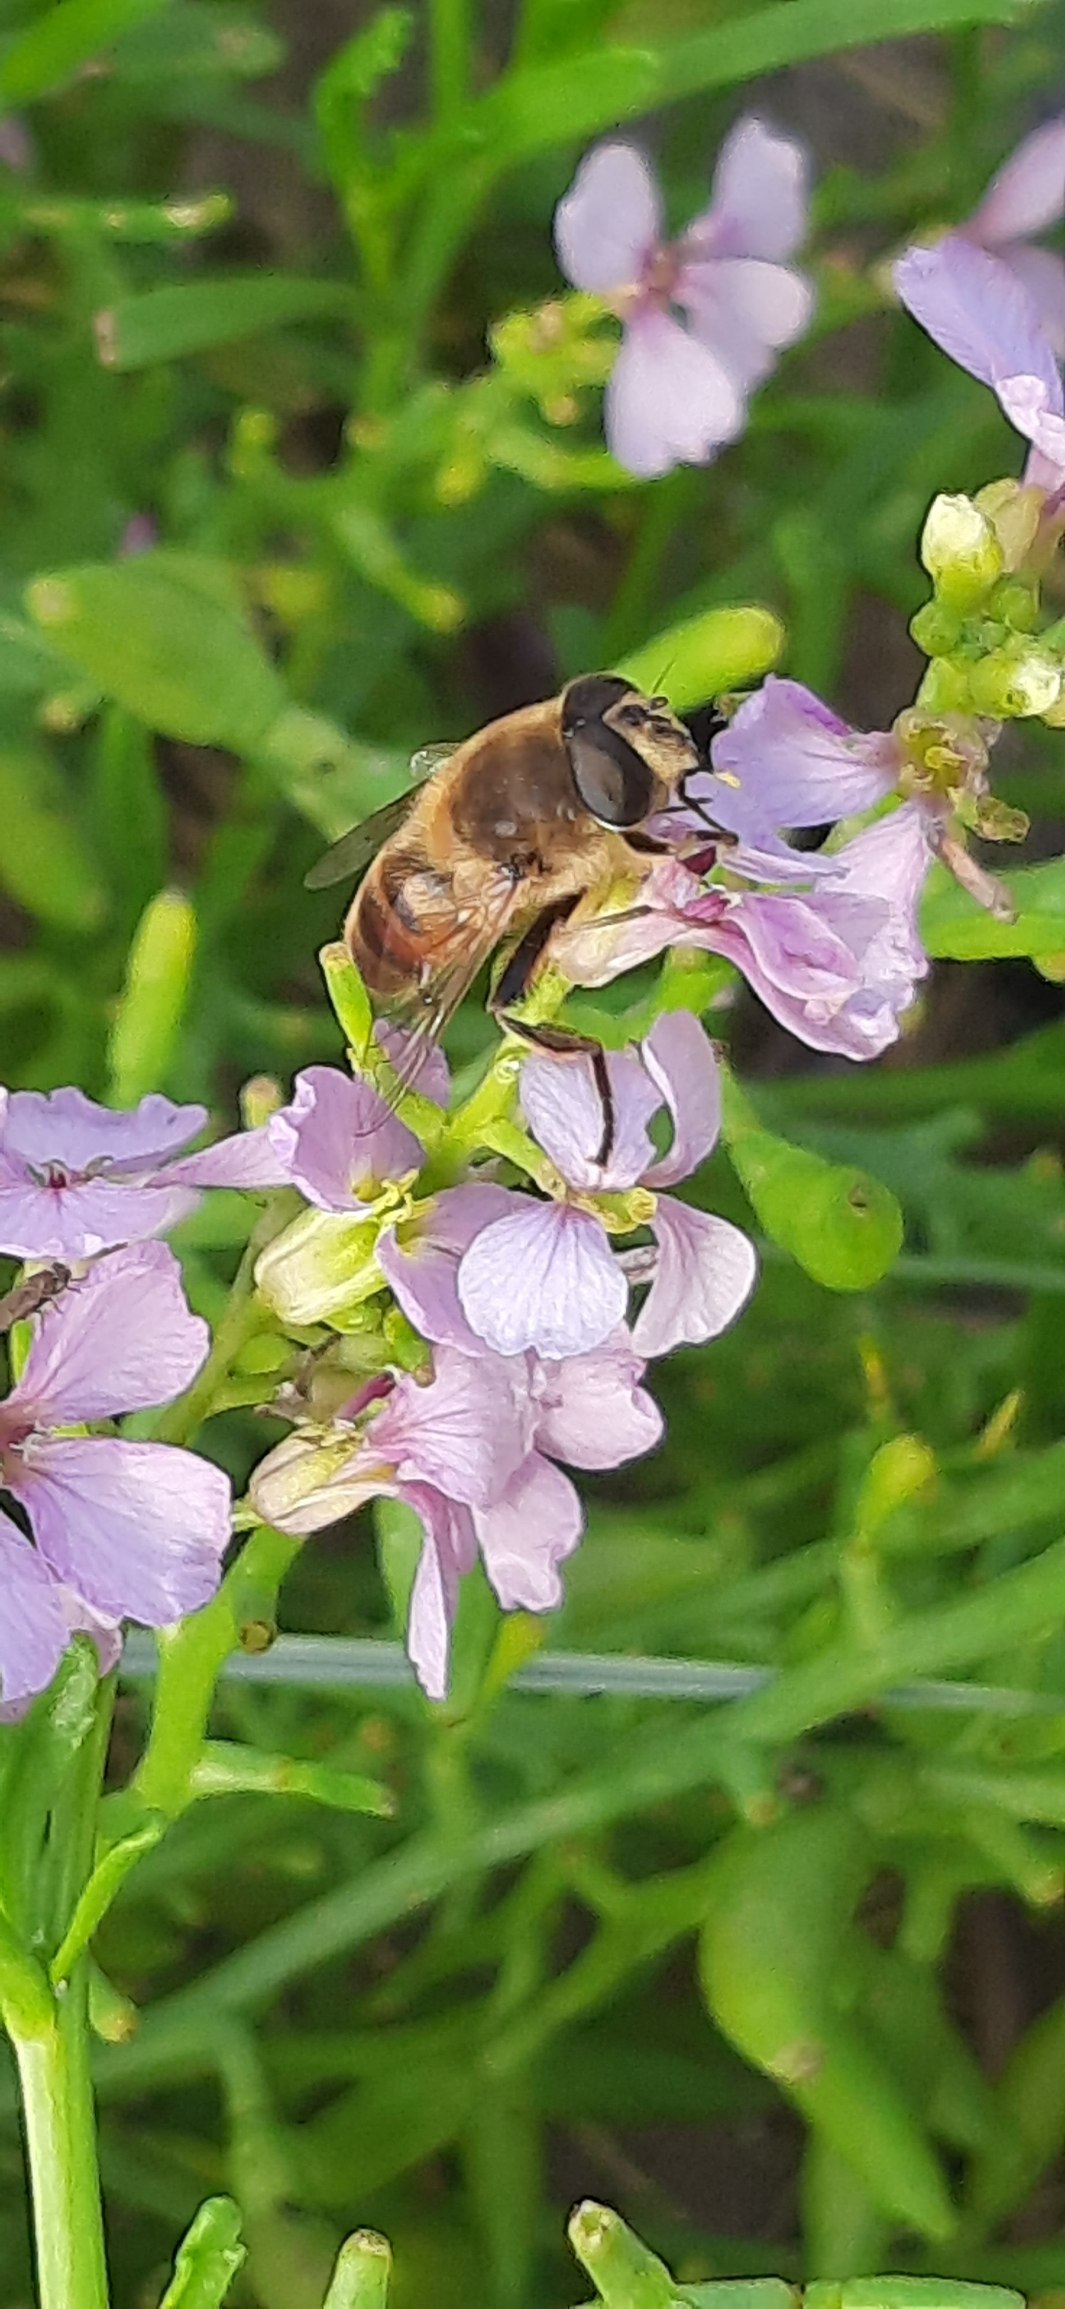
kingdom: Animalia
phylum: Arthropoda
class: Insecta
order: Diptera
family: Syrphidae
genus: Eristalis
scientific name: Eristalis tenax
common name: Droneflue
